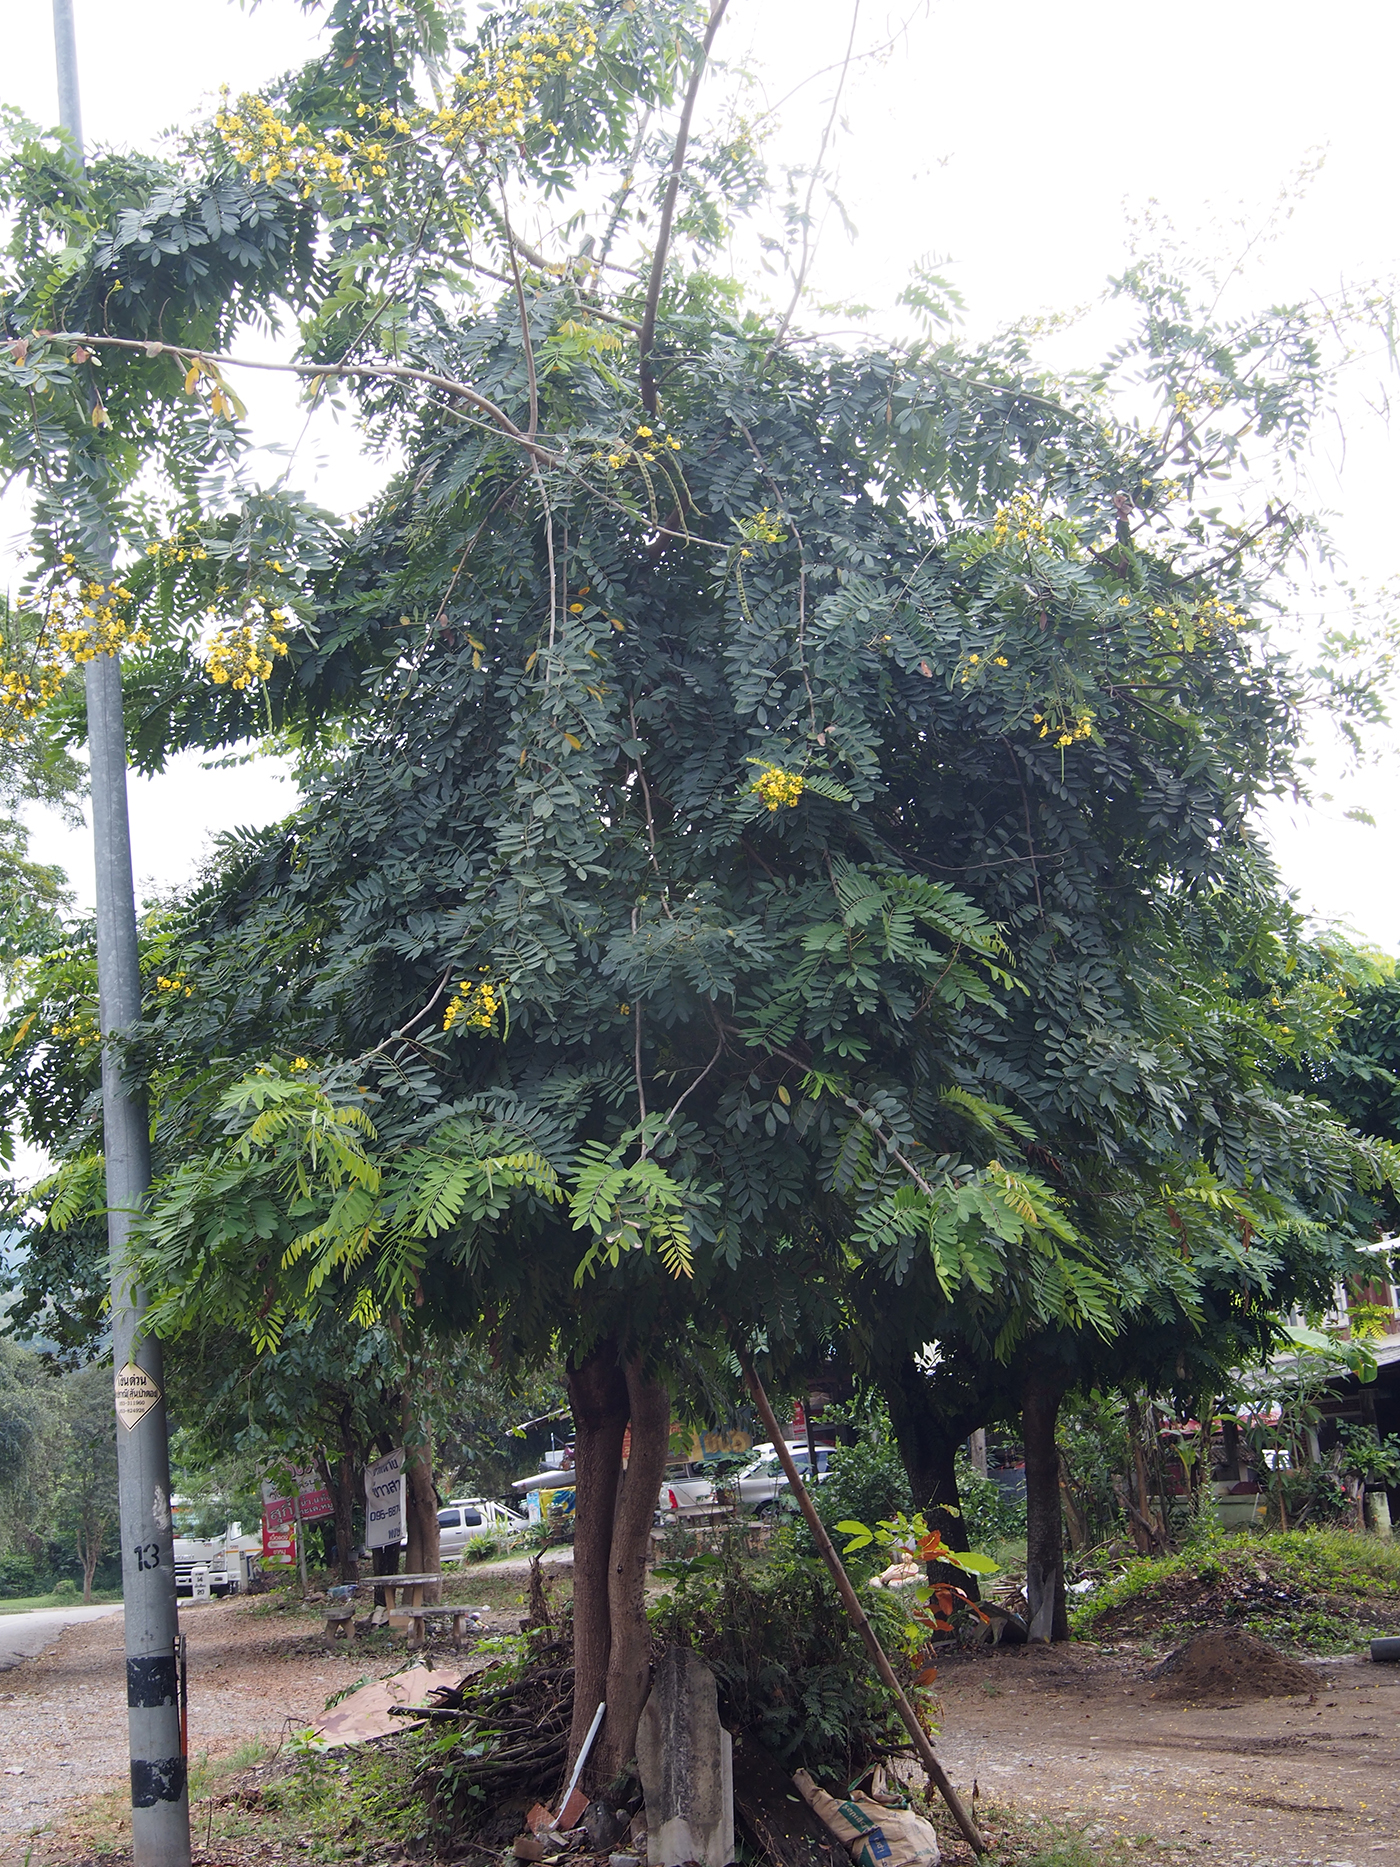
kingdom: Plantae
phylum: Tracheophyta
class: Magnoliopsida
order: Fabales
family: Fabaceae
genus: Senna
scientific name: Senna siamea
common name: Siamese cassia
